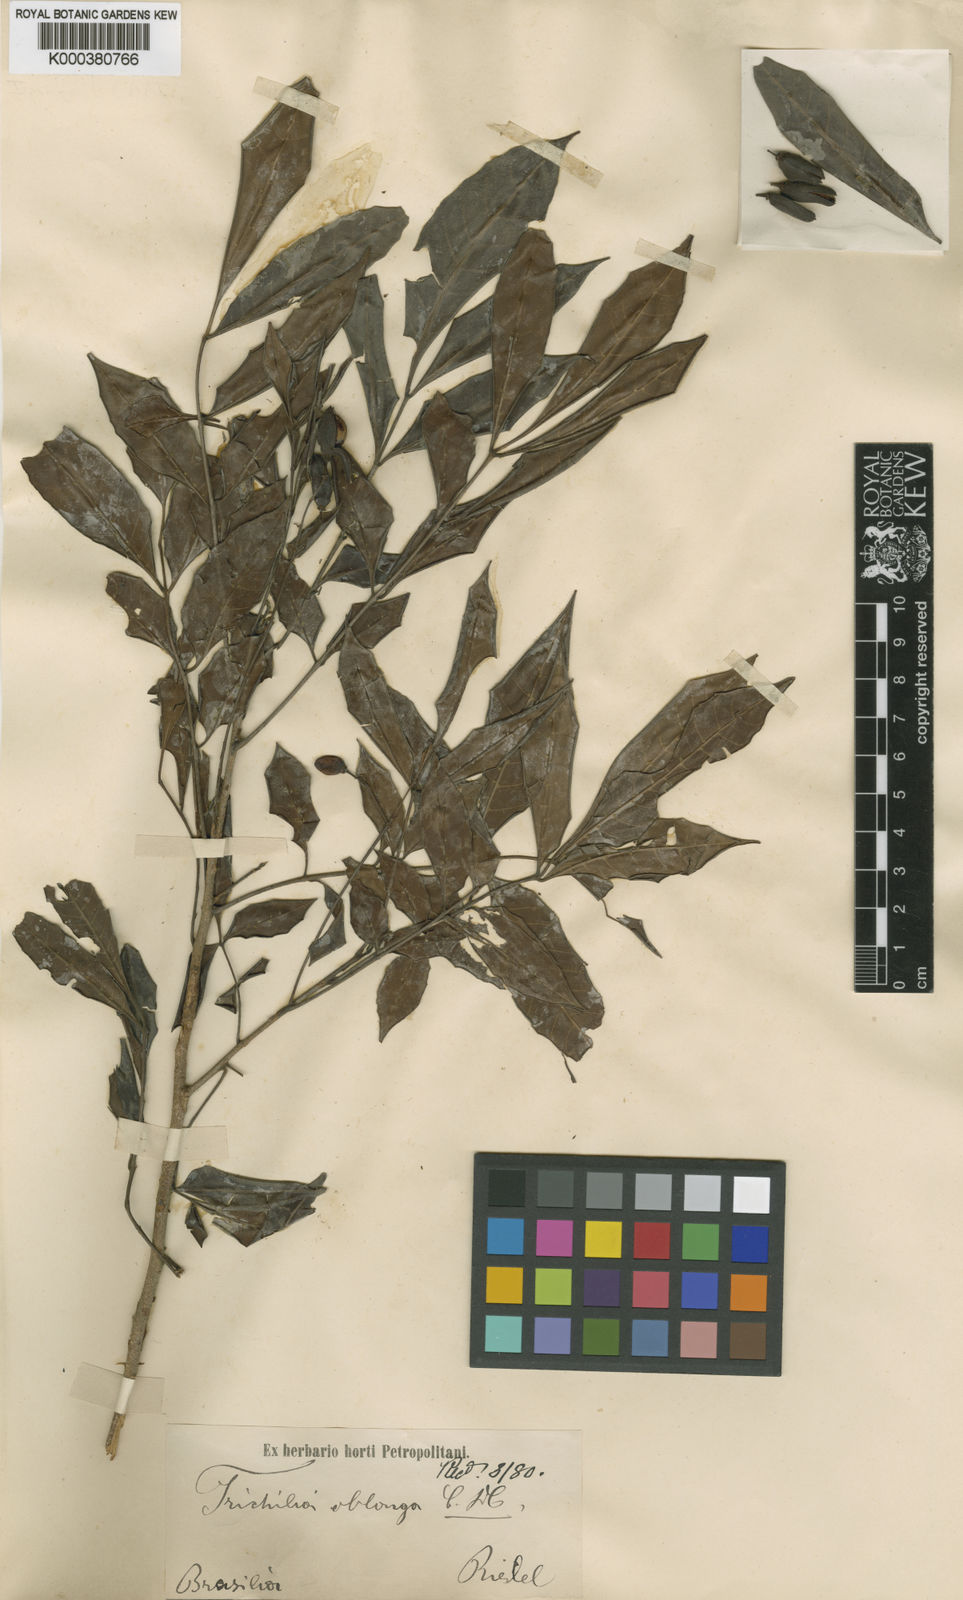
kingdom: Plantae
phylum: Tracheophyta
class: Magnoliopsida
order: Sapindales
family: Meliaceae
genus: Trichilia
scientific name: Trichilia
